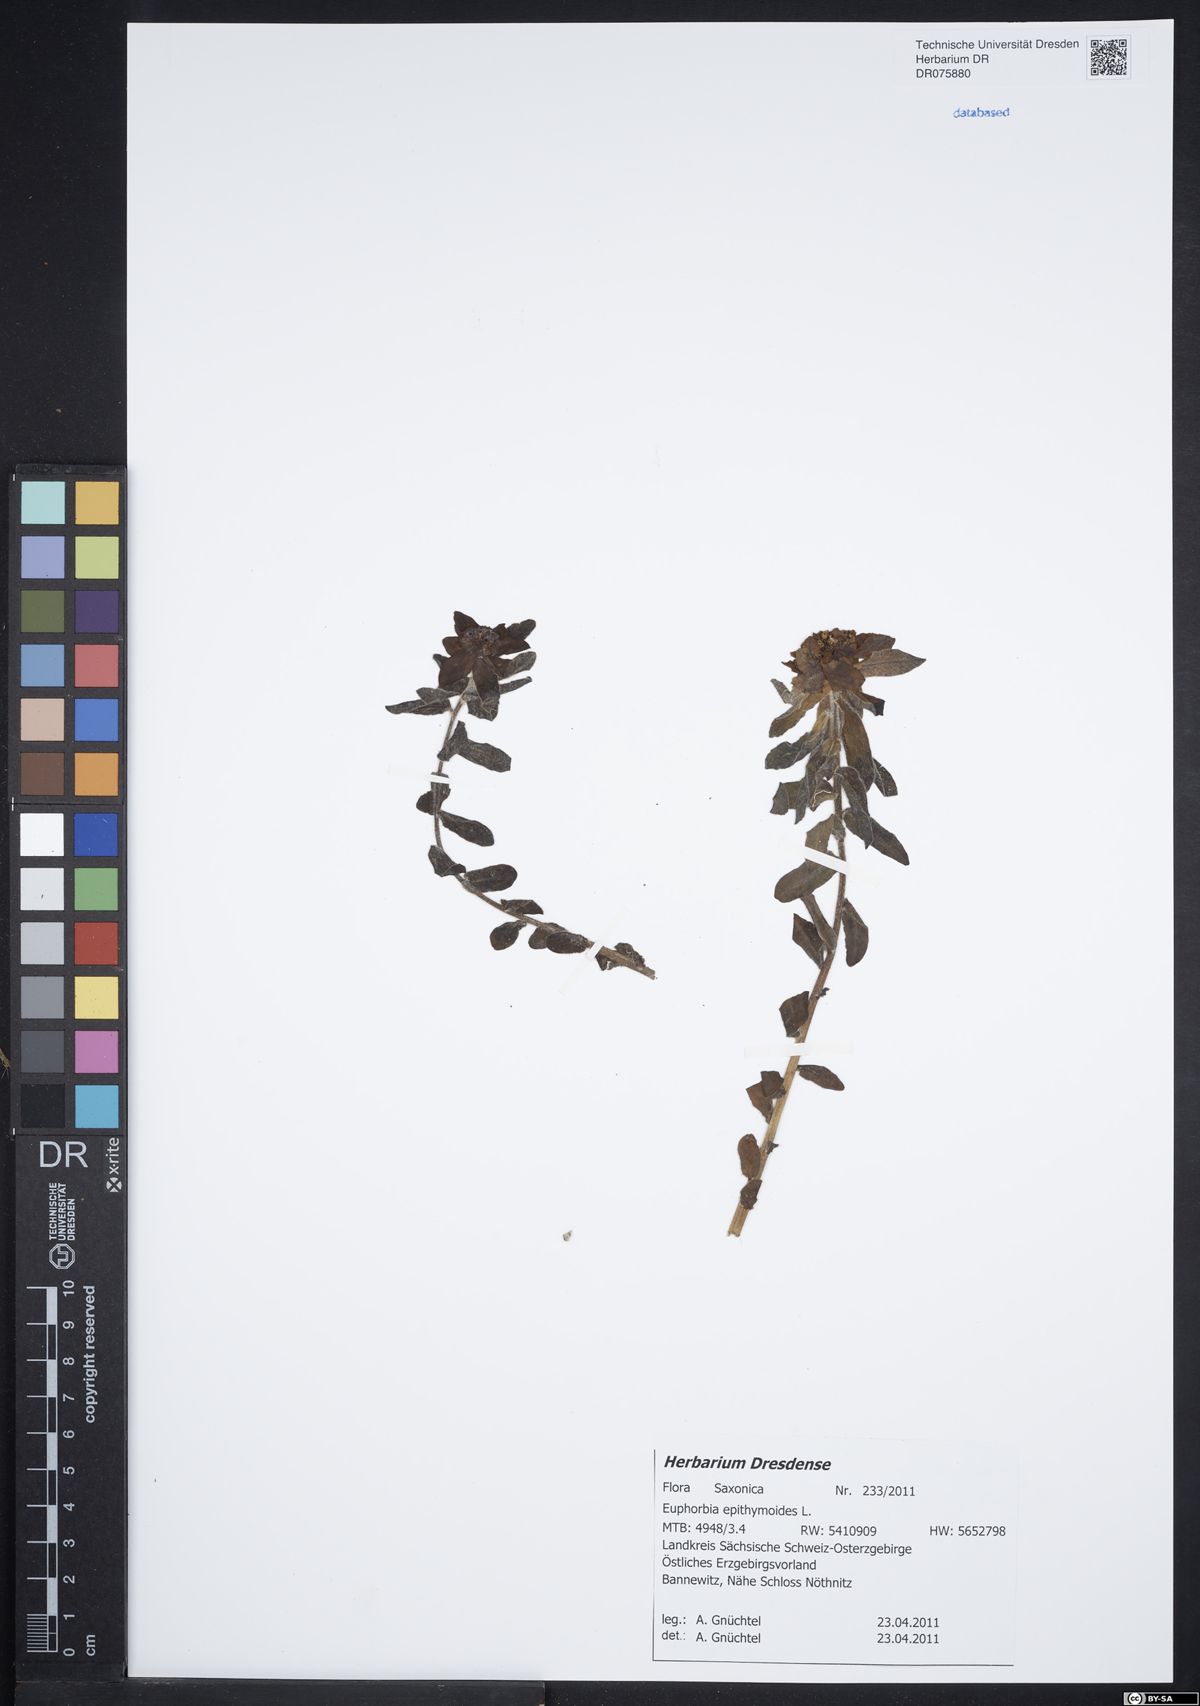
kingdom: Plantae
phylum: Tracheophyta
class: Magnoliopsida
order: Malpighiales
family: Euphorbiaceae
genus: Euphorbia
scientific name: Euphorbia epithymoides
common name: Cushion spurge
